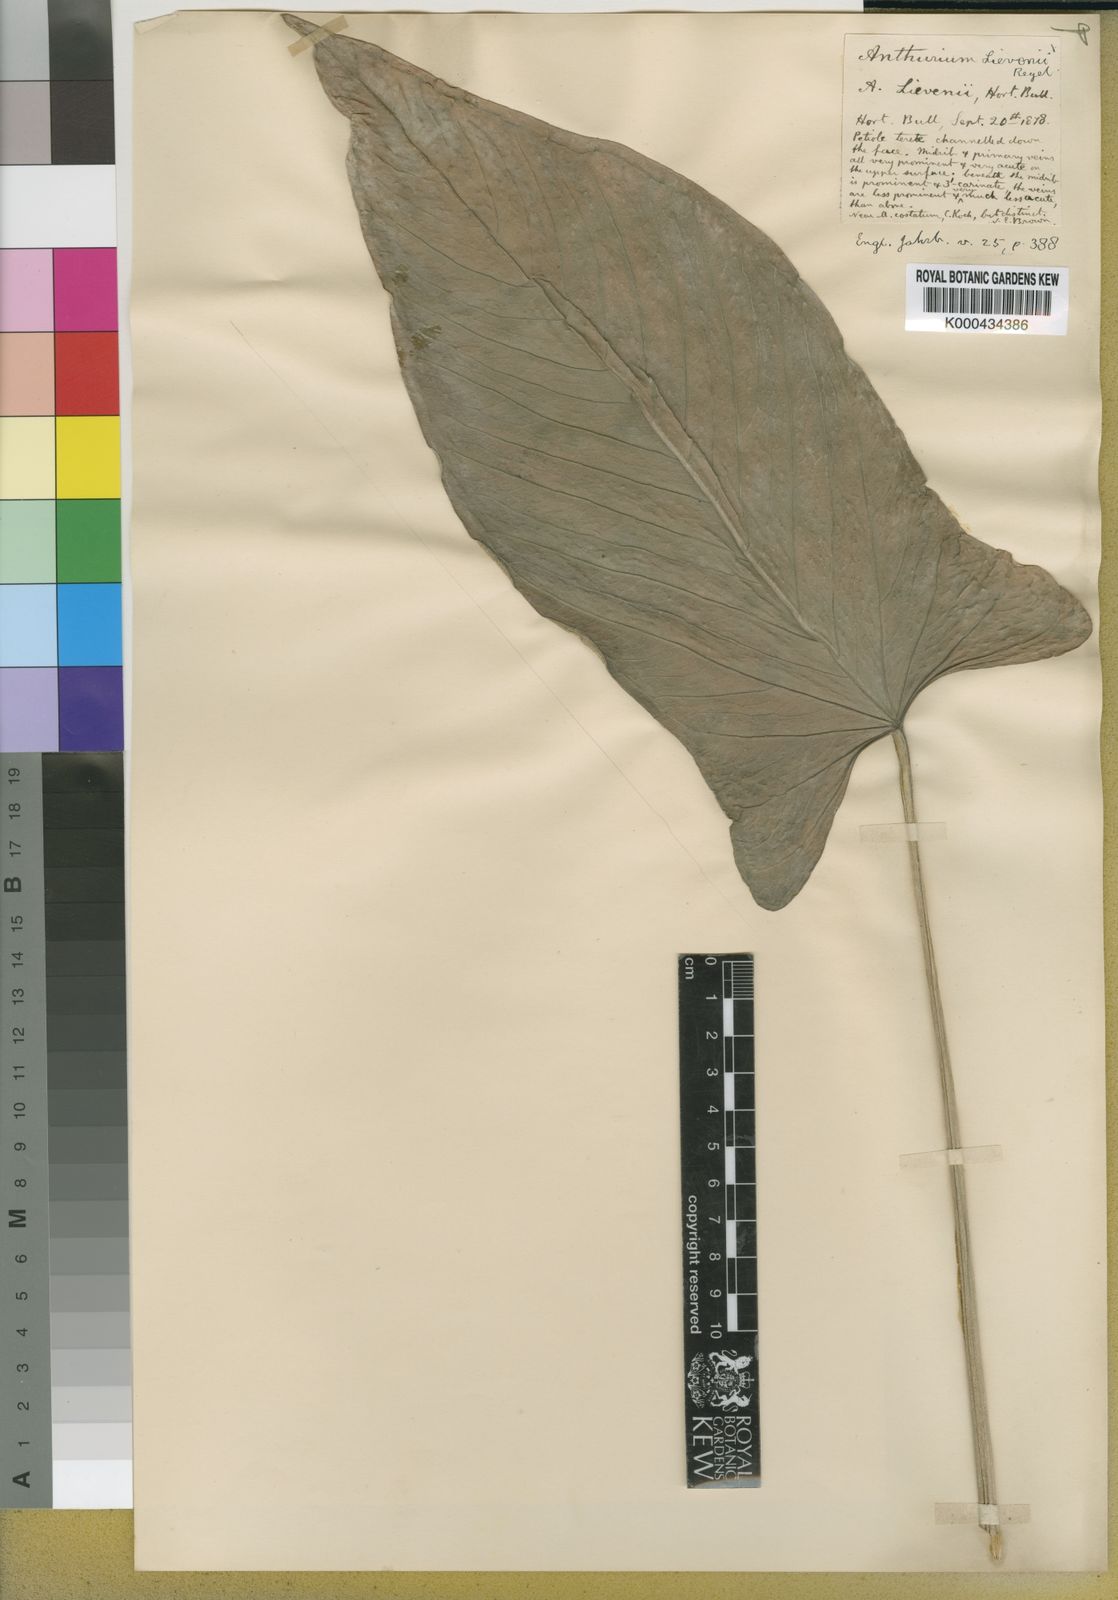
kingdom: Plantae
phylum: Tracheophyta
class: Liliopsida
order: Alismatales
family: Araceae
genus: Anthurium
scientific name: Anthurium
